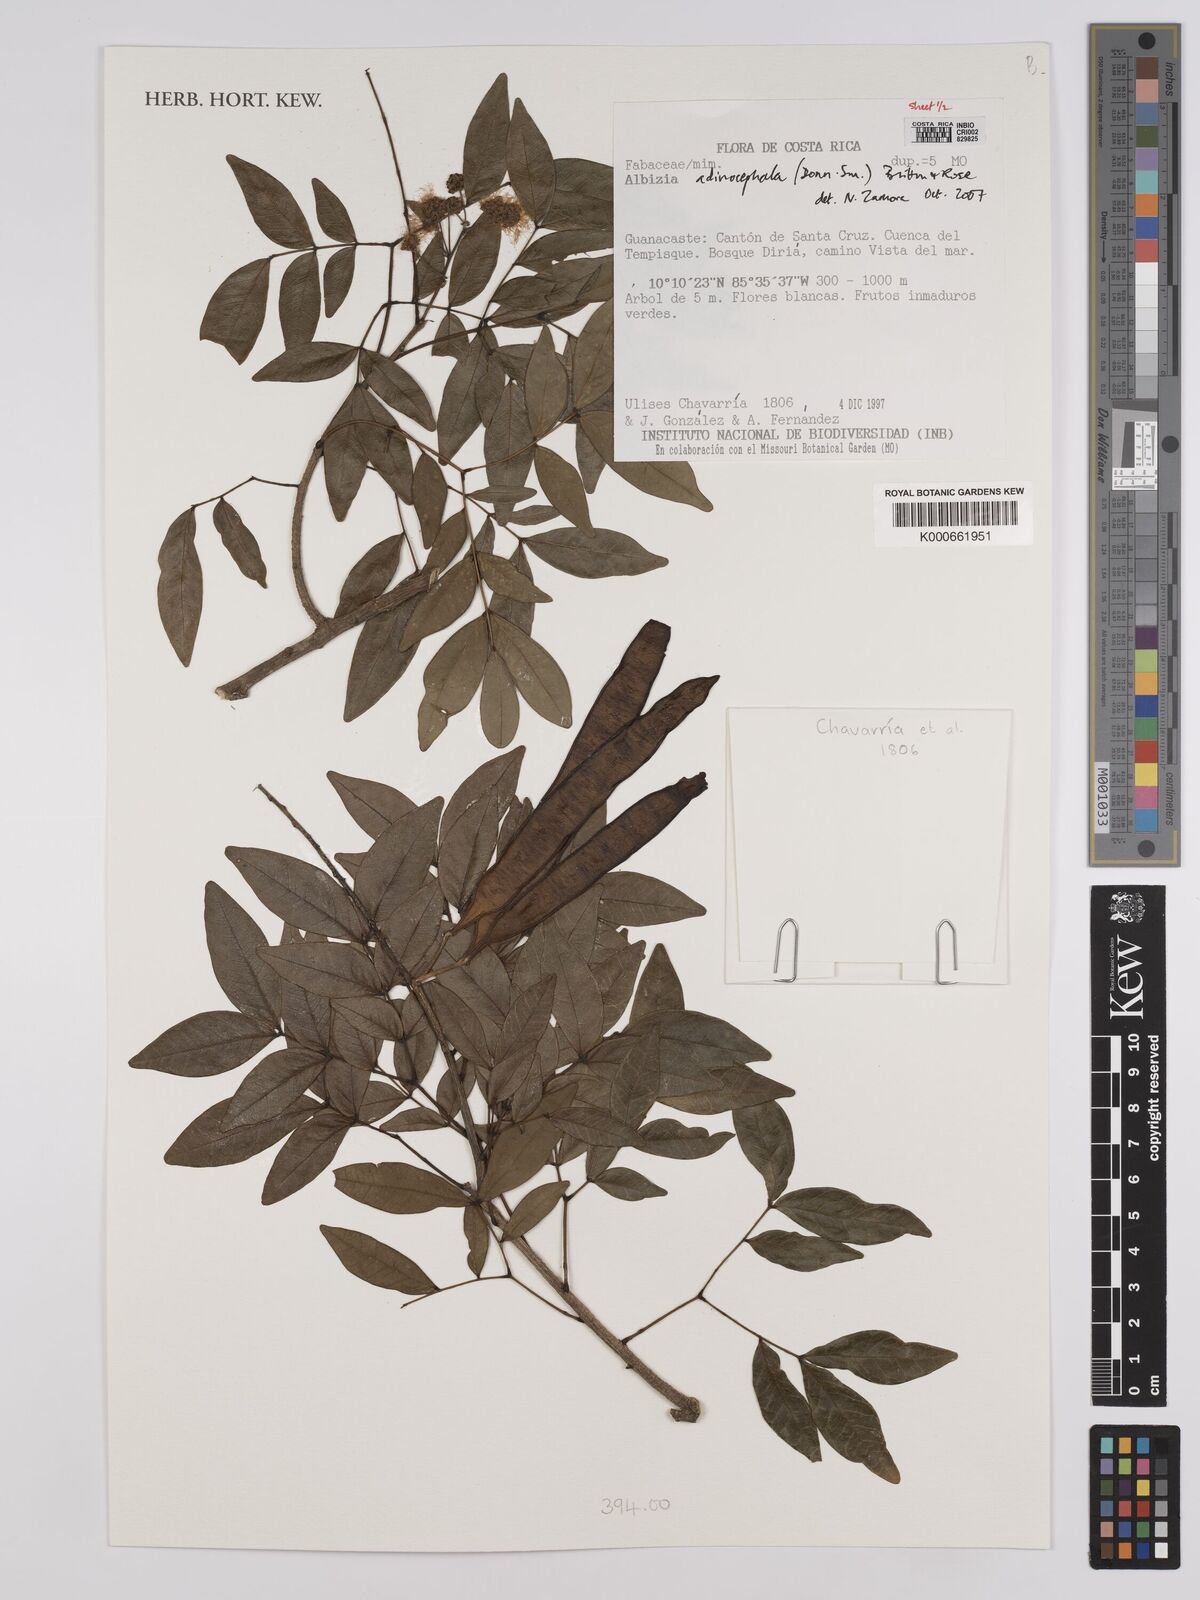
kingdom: Plantae
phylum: Tracheophyta
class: Magnoliopsida
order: Fabales
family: Fabaceae
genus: Albizia
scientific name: Albizia
